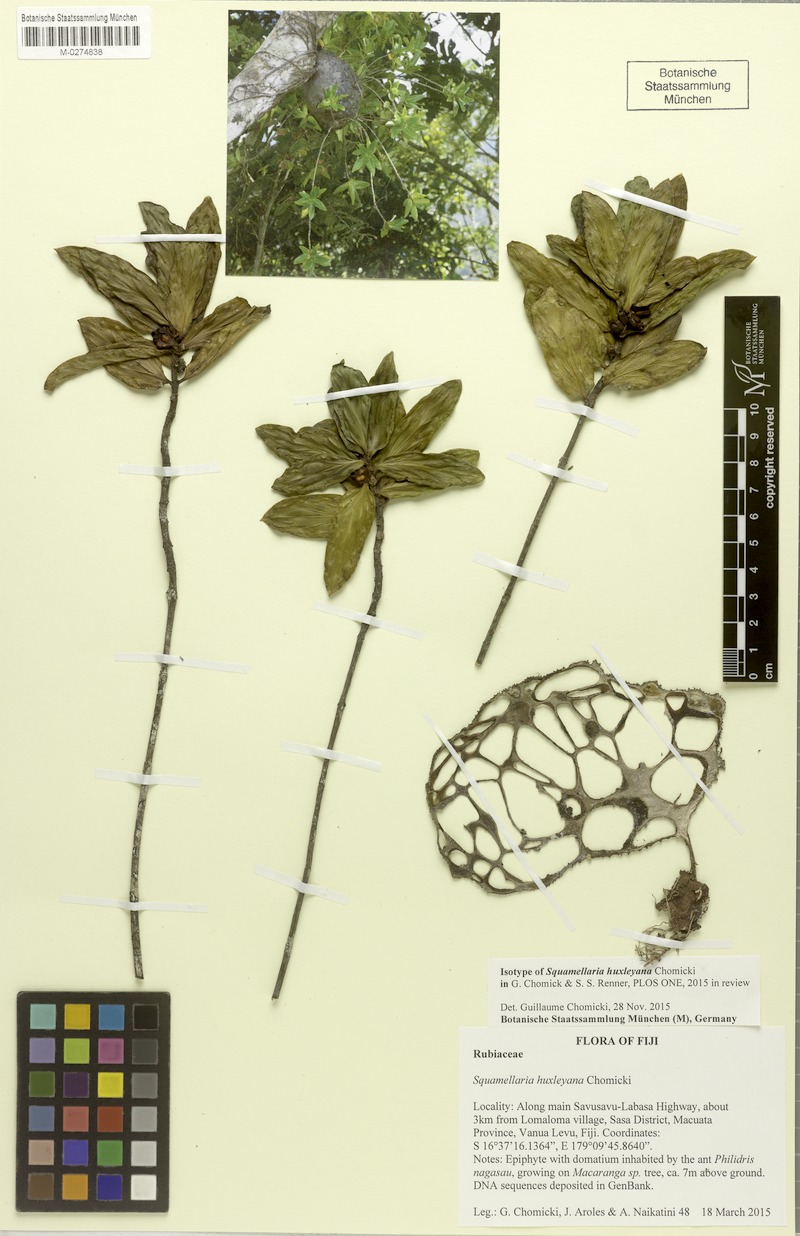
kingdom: Plantae
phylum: Tracheophyta
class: Magnoliopsida
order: Gentianales
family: Rubiaceae
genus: Squamellaria
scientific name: Squamellaria huxleyana
